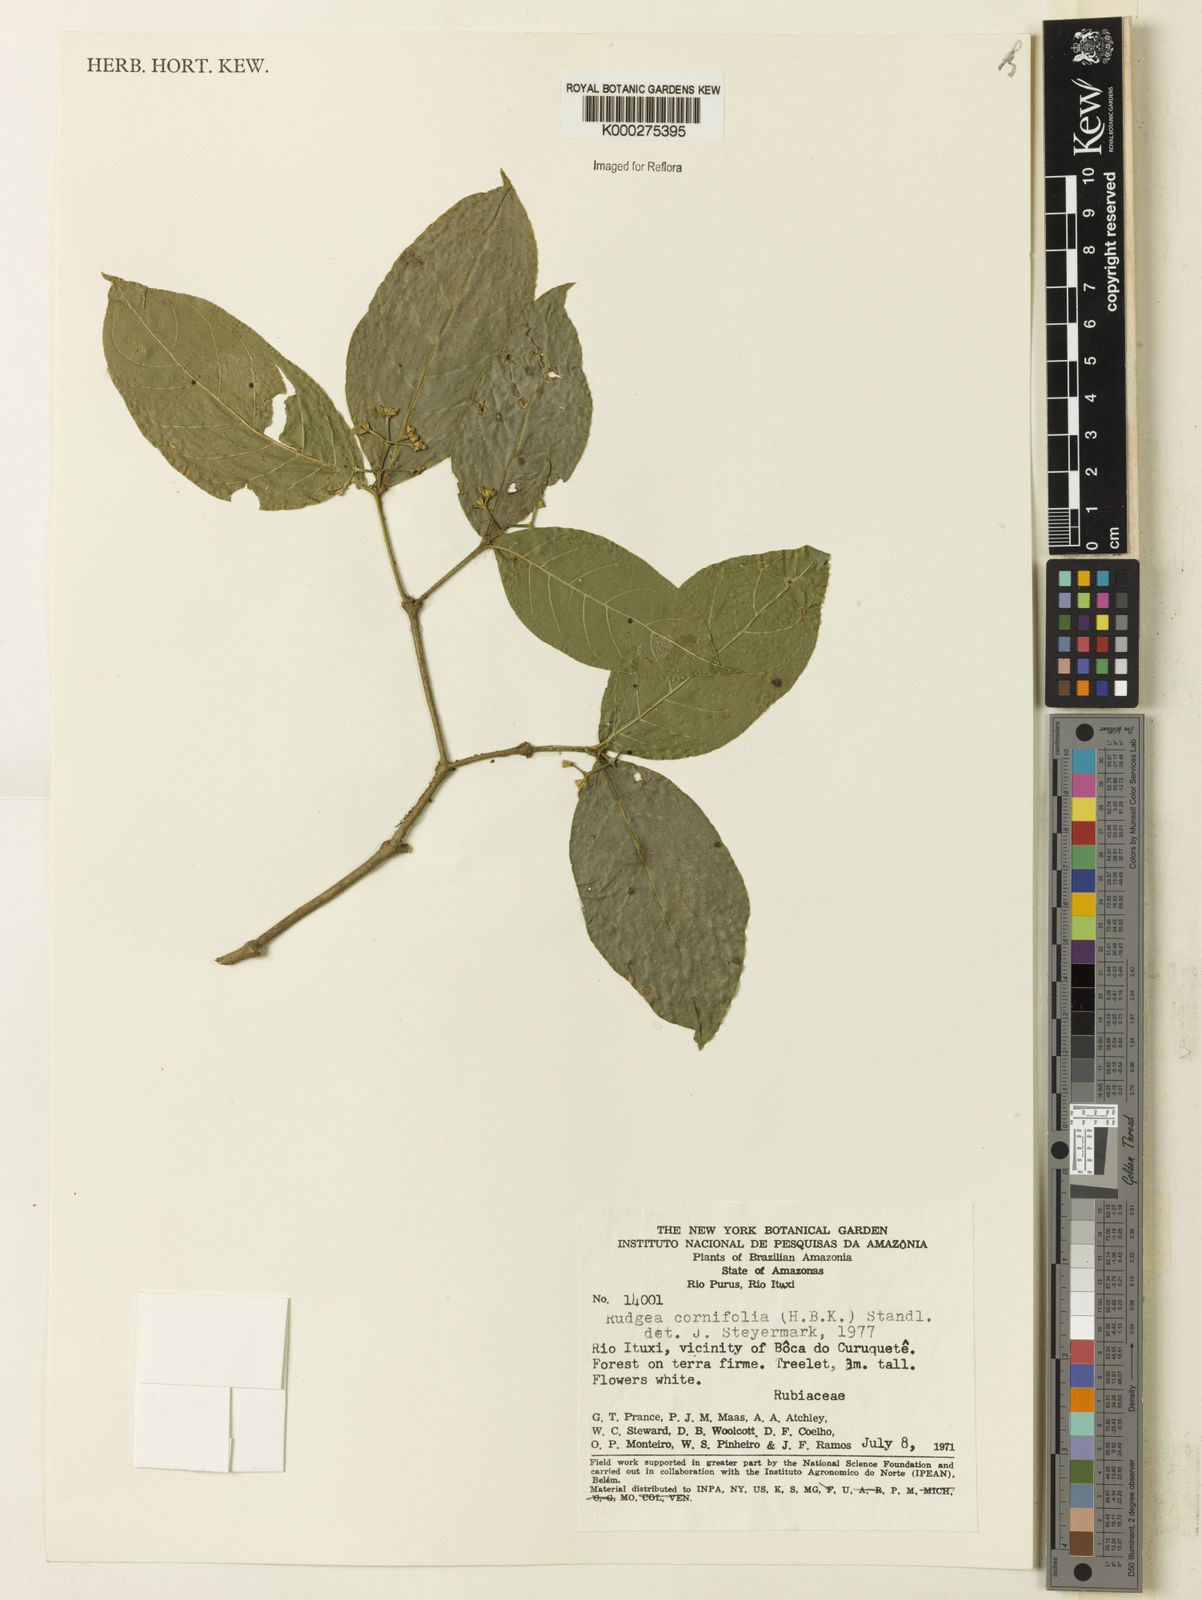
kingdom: Plantae
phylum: Tracheophyta
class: Magnoliopsida
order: Gentianales
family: Rubiaceae
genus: Rudgea
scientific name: Rudgea cornifolia
